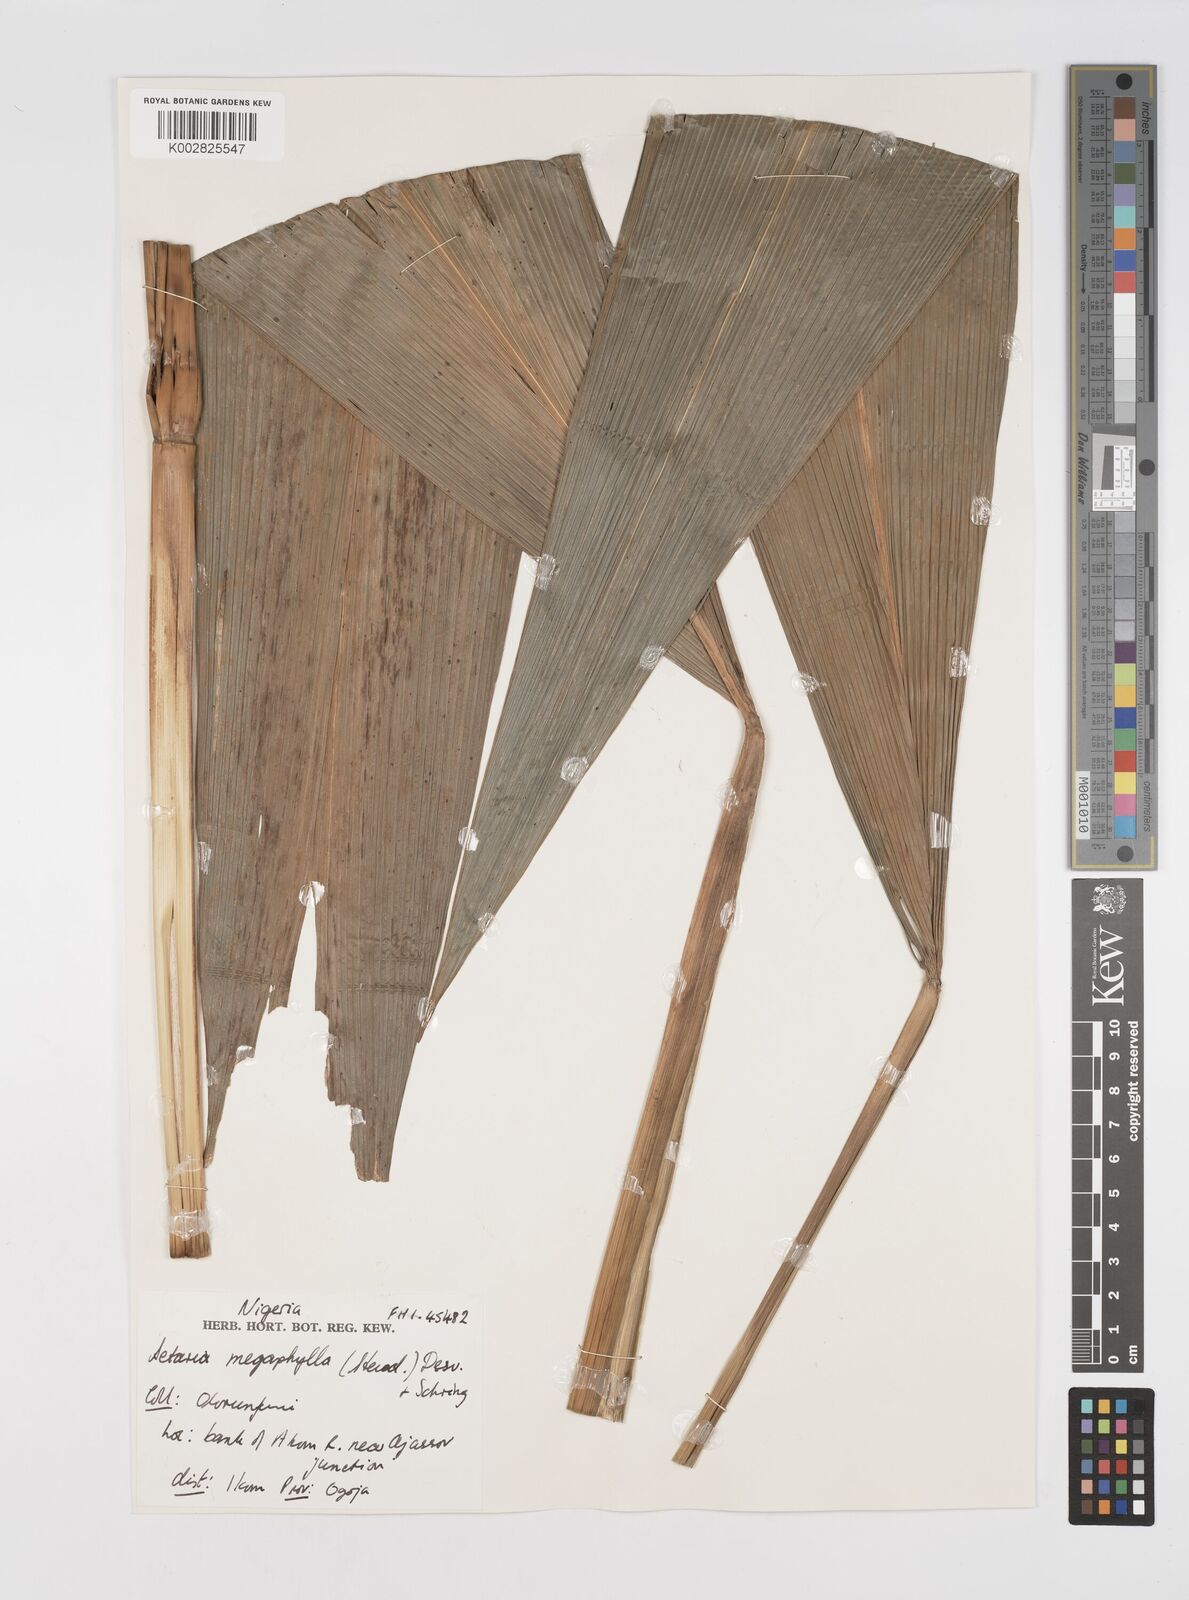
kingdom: Plantae
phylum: Tracheophyta
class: Liliopsida
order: Poales
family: Poaceae
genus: Setaria
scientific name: Setaria megaphylla
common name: Bigleaf bristlegrass
